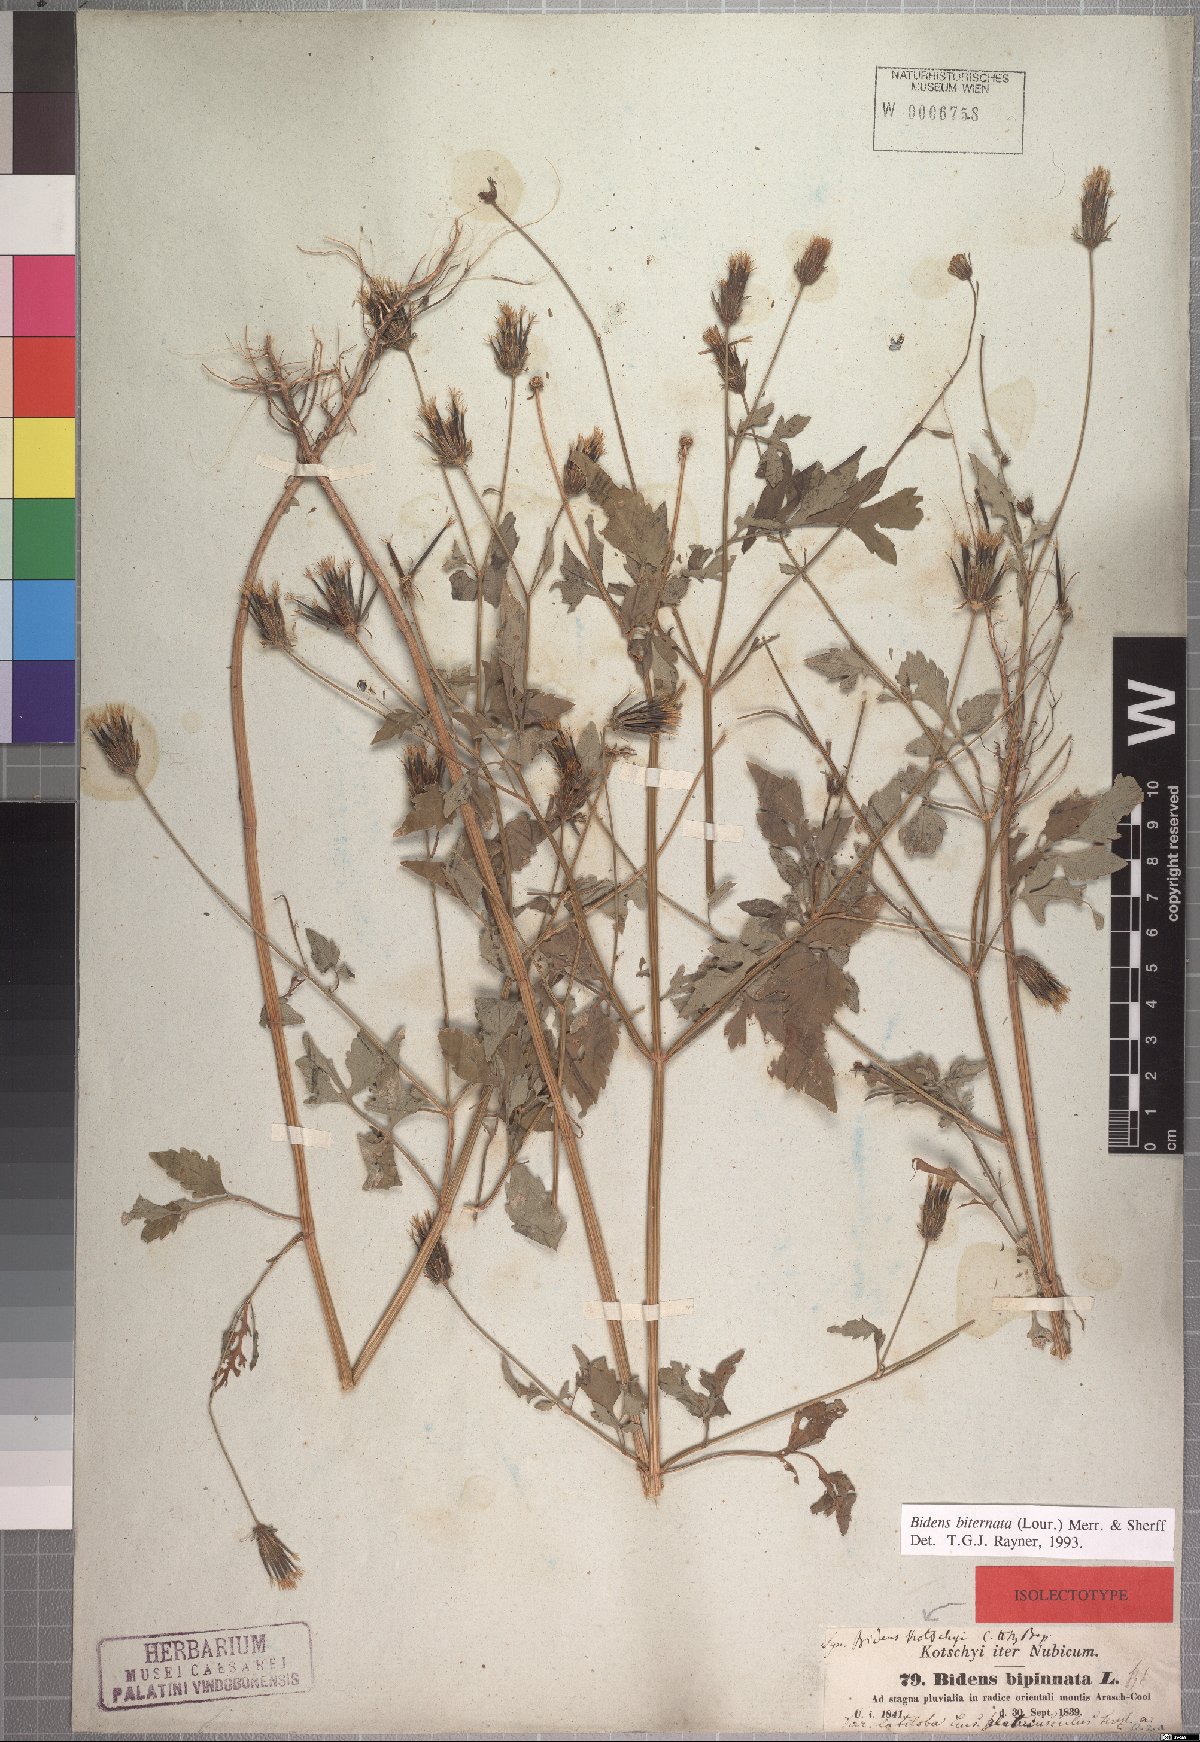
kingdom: Plantae
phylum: Tracheophyta
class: Magnoliopsida
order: Asterales
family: Asteraceae
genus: Bidens
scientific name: Bidens biternata
